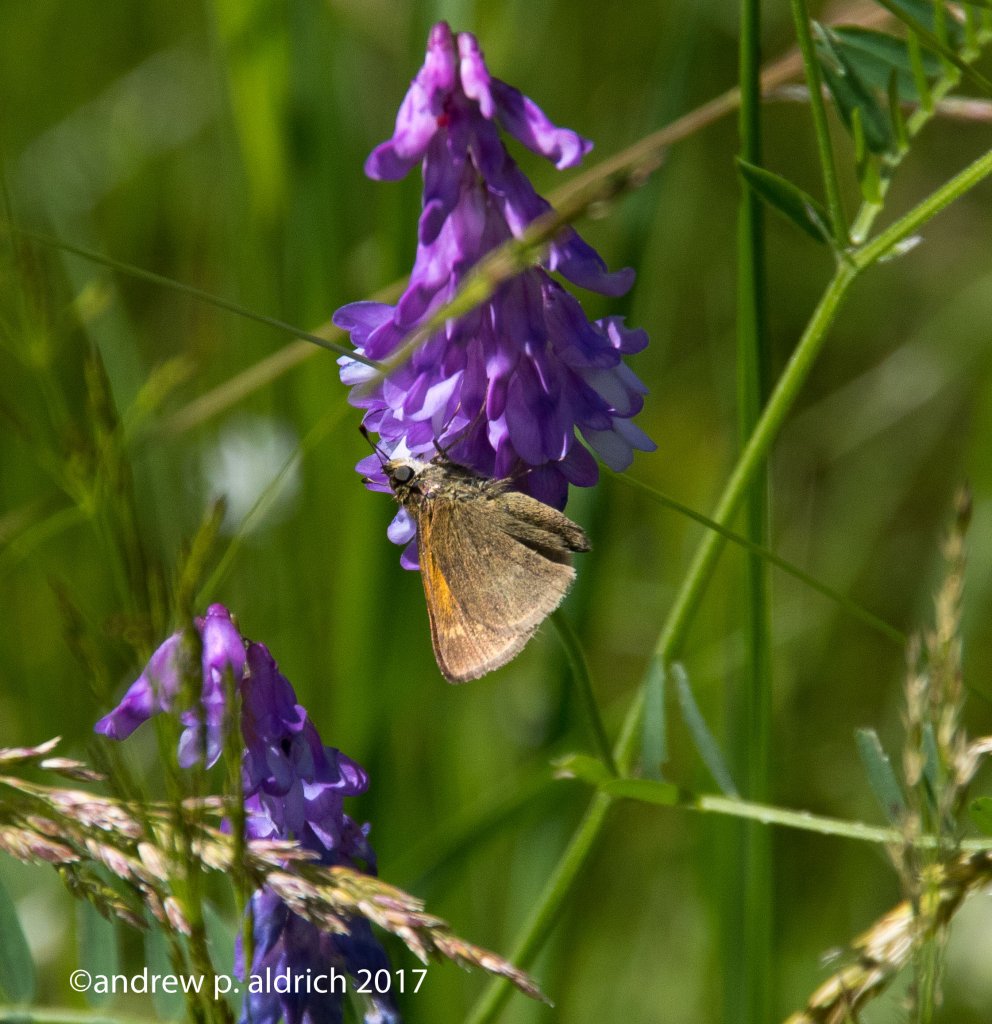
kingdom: Animalia
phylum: Arthropoda
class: Insecta
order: Lepidoptera
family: Hesperiidae
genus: Polites
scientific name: Polites themistocles
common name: Tawny-edged Skipper
